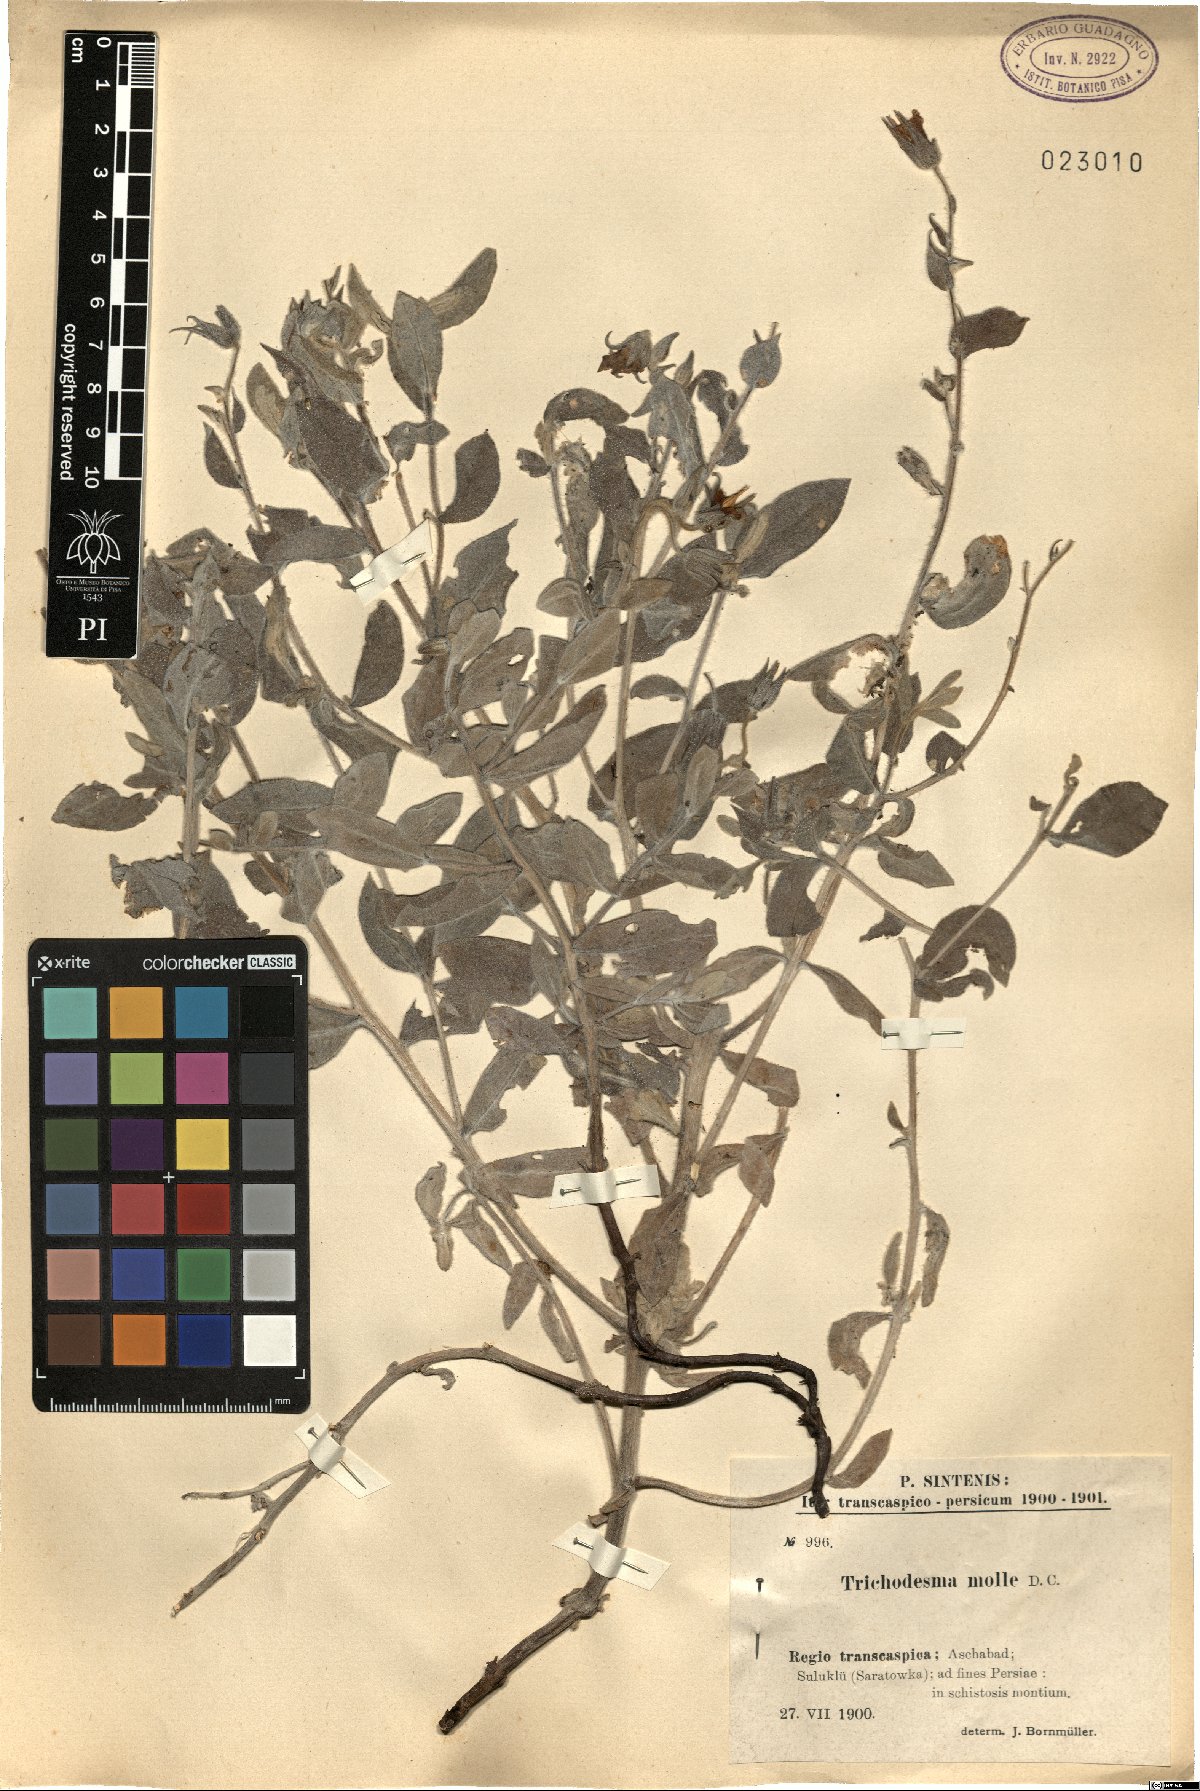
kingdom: Plantae
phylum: Tracheophyta
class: Magnoliopsida
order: Boraginales
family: Boraginaceae
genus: Trichodesma
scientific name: Trichodesma incanum
